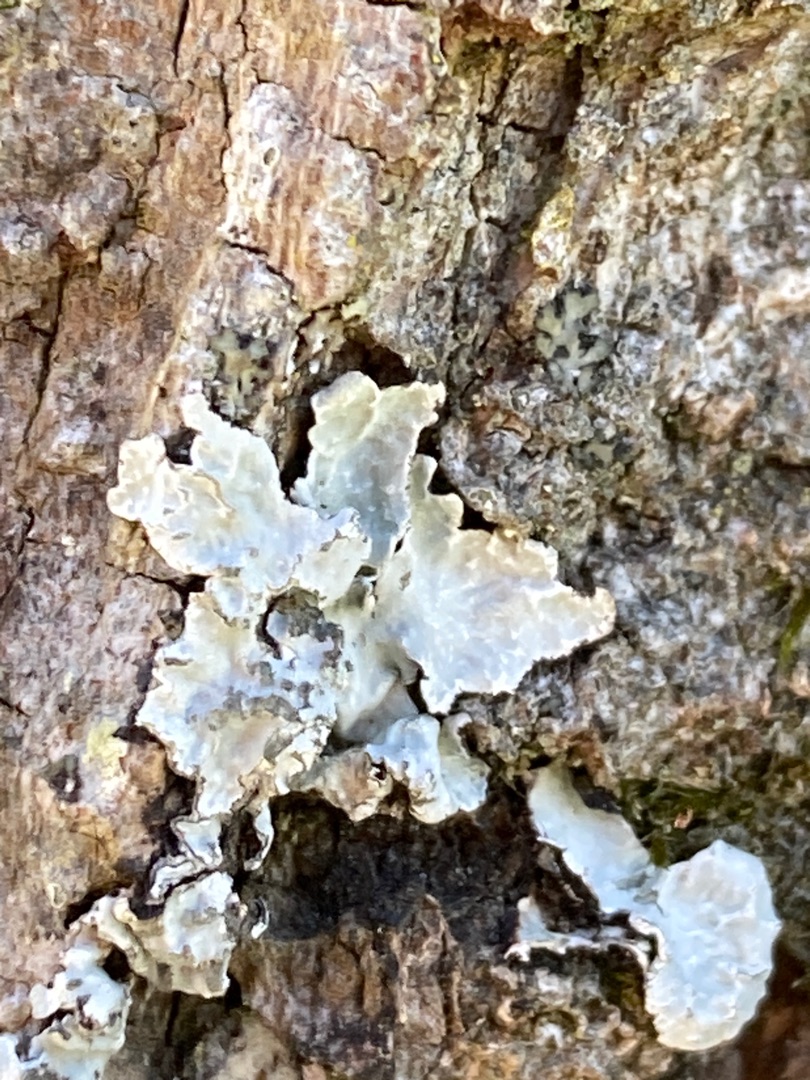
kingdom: Fungi
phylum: Ascomycota
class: Lecanoromycetes
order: Lecanorales
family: Parmeliaceae
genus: Parmelia
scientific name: Parmelia sulcata
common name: Rynket skållav
